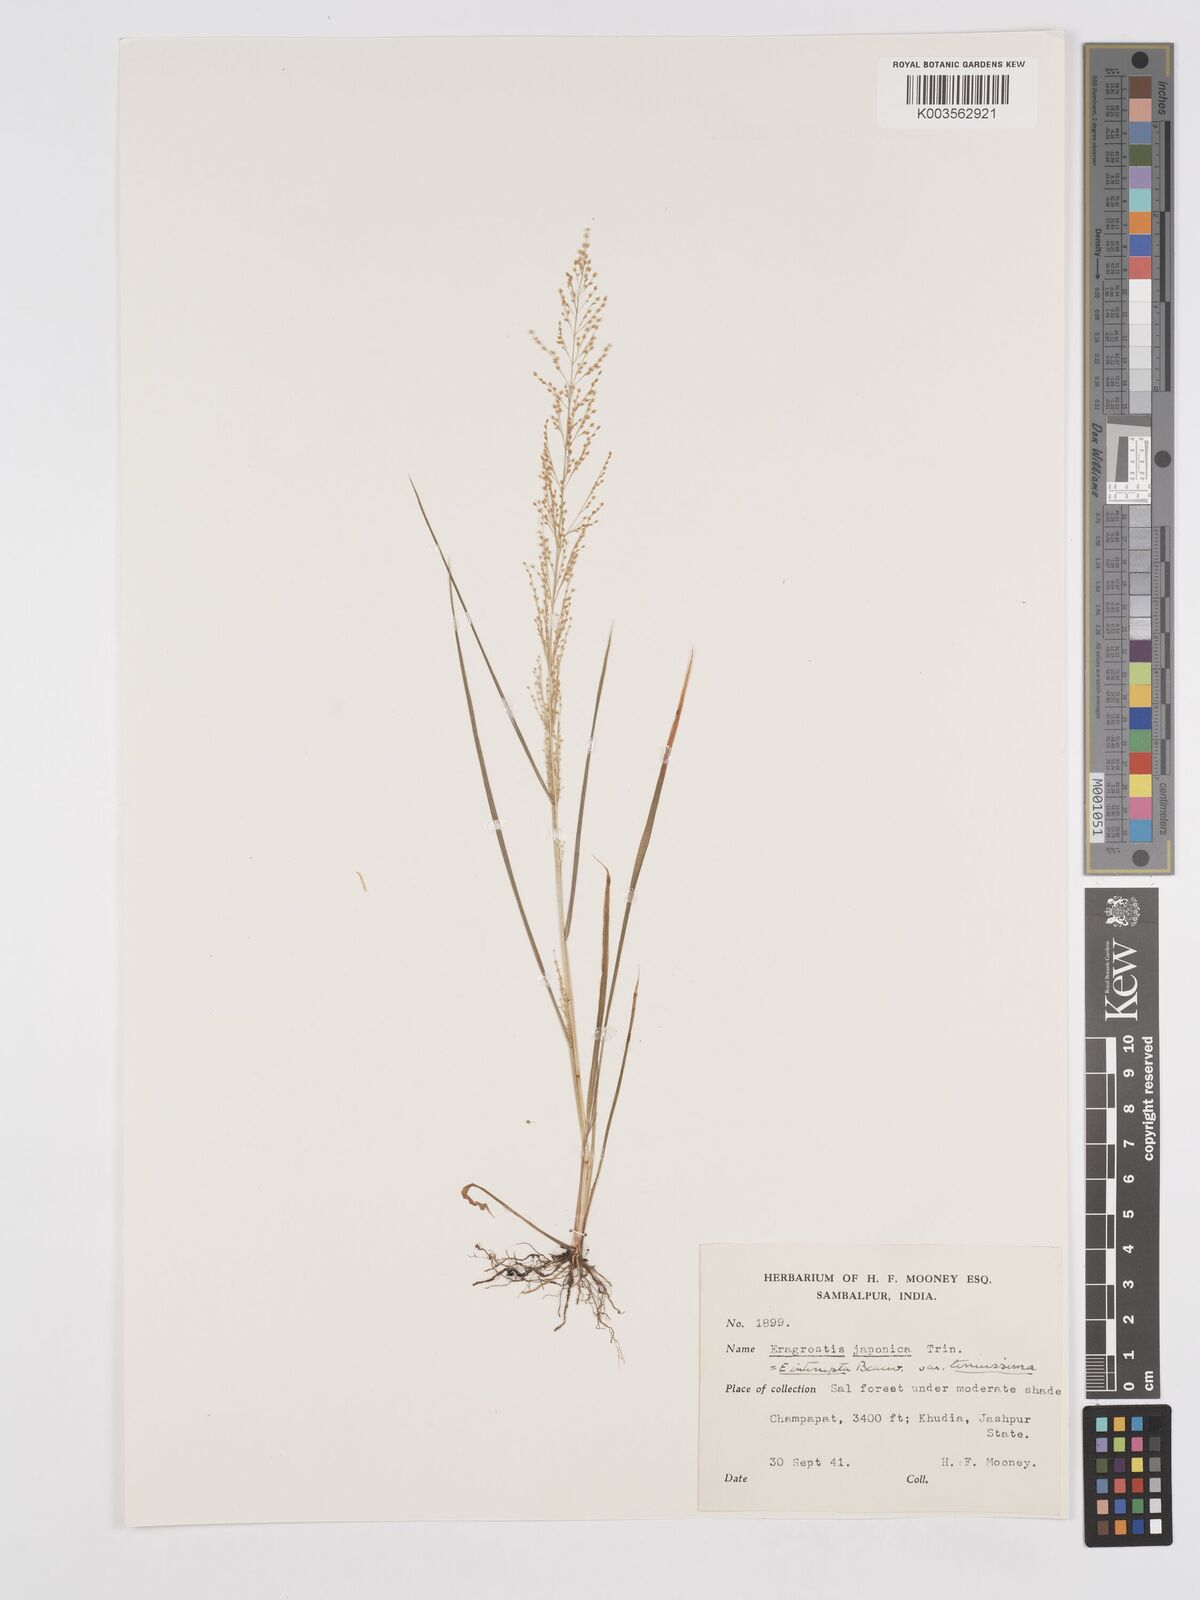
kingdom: Plantae
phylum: Tracheophyta
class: Liliopsida
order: Poales
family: Poaceae
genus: Eragrostis
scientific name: Eragrostis japonica
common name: Pond lovegrass
